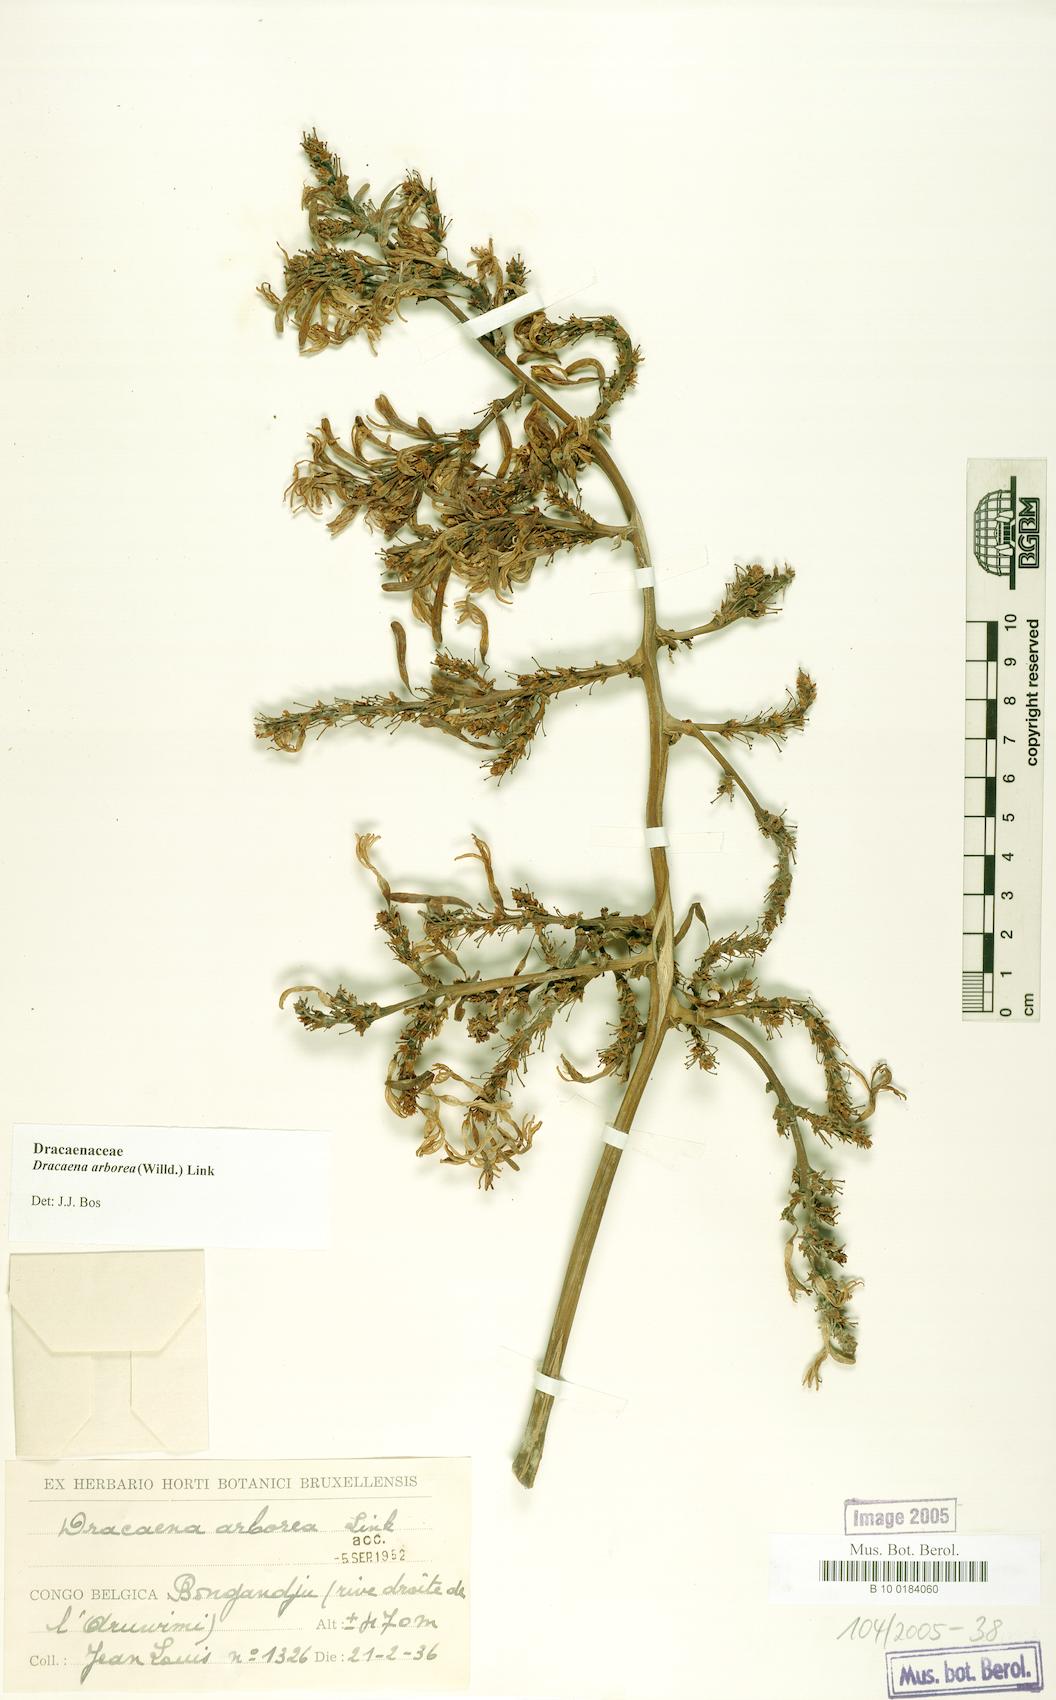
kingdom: Plantae
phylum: Tracheophyta
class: Liliopsida
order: Asparagales
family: Asparagaceae
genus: Dracaena
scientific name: Dracaena arborea
